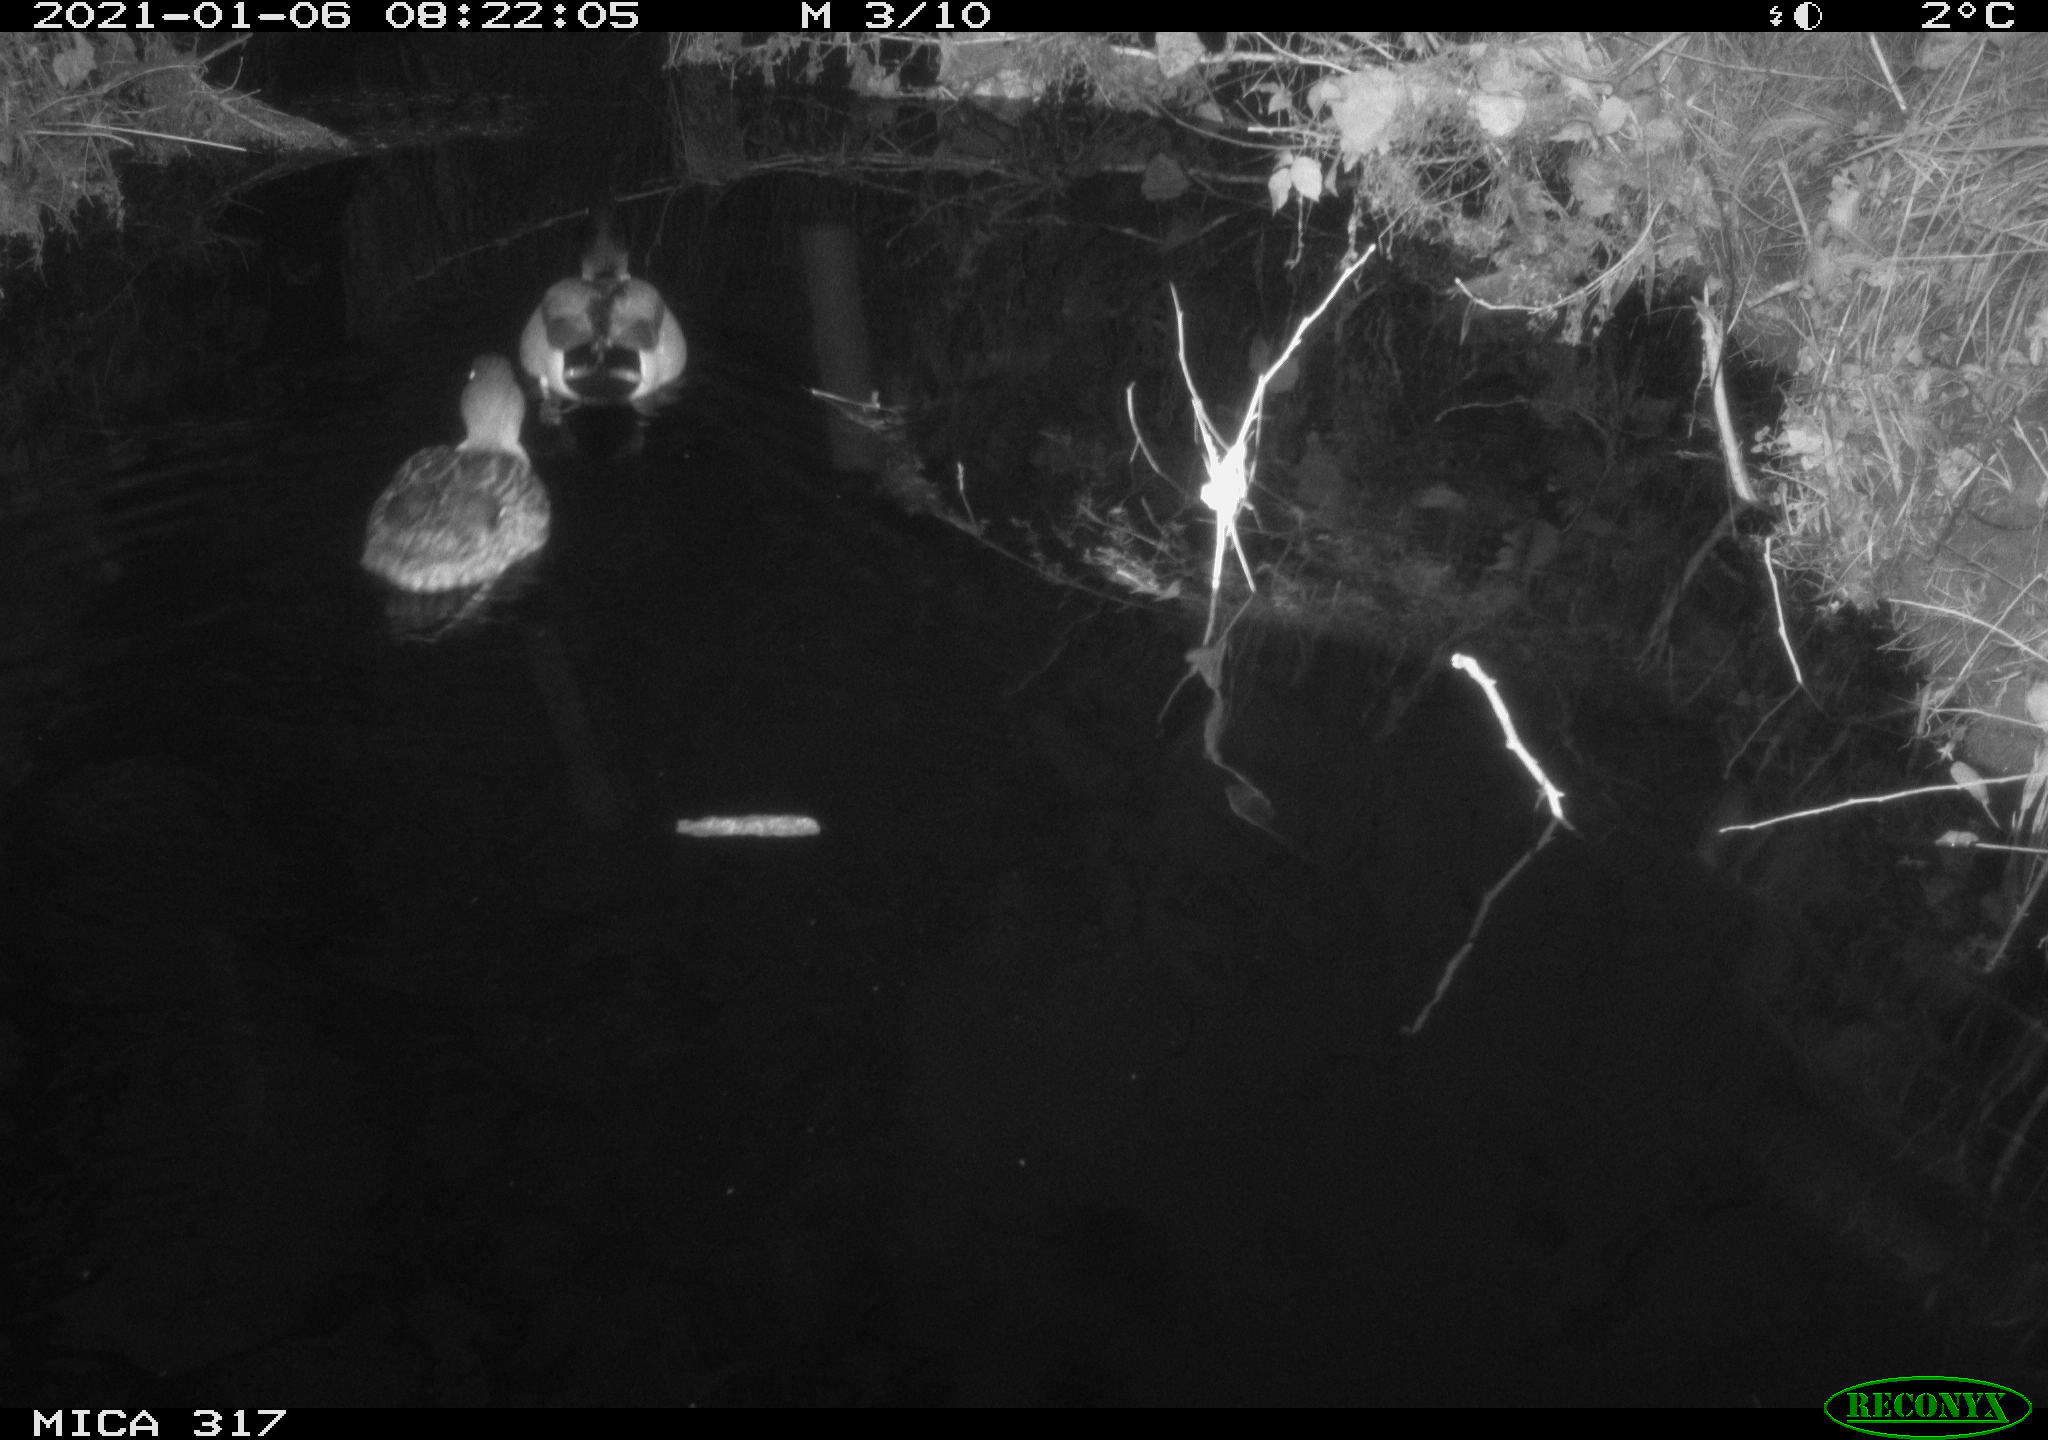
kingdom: Animalia
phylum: Chordata
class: Aves
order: Anseriformes
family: Anatidae
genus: Anas
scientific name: Anas platyrhynchos
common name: Mallard
